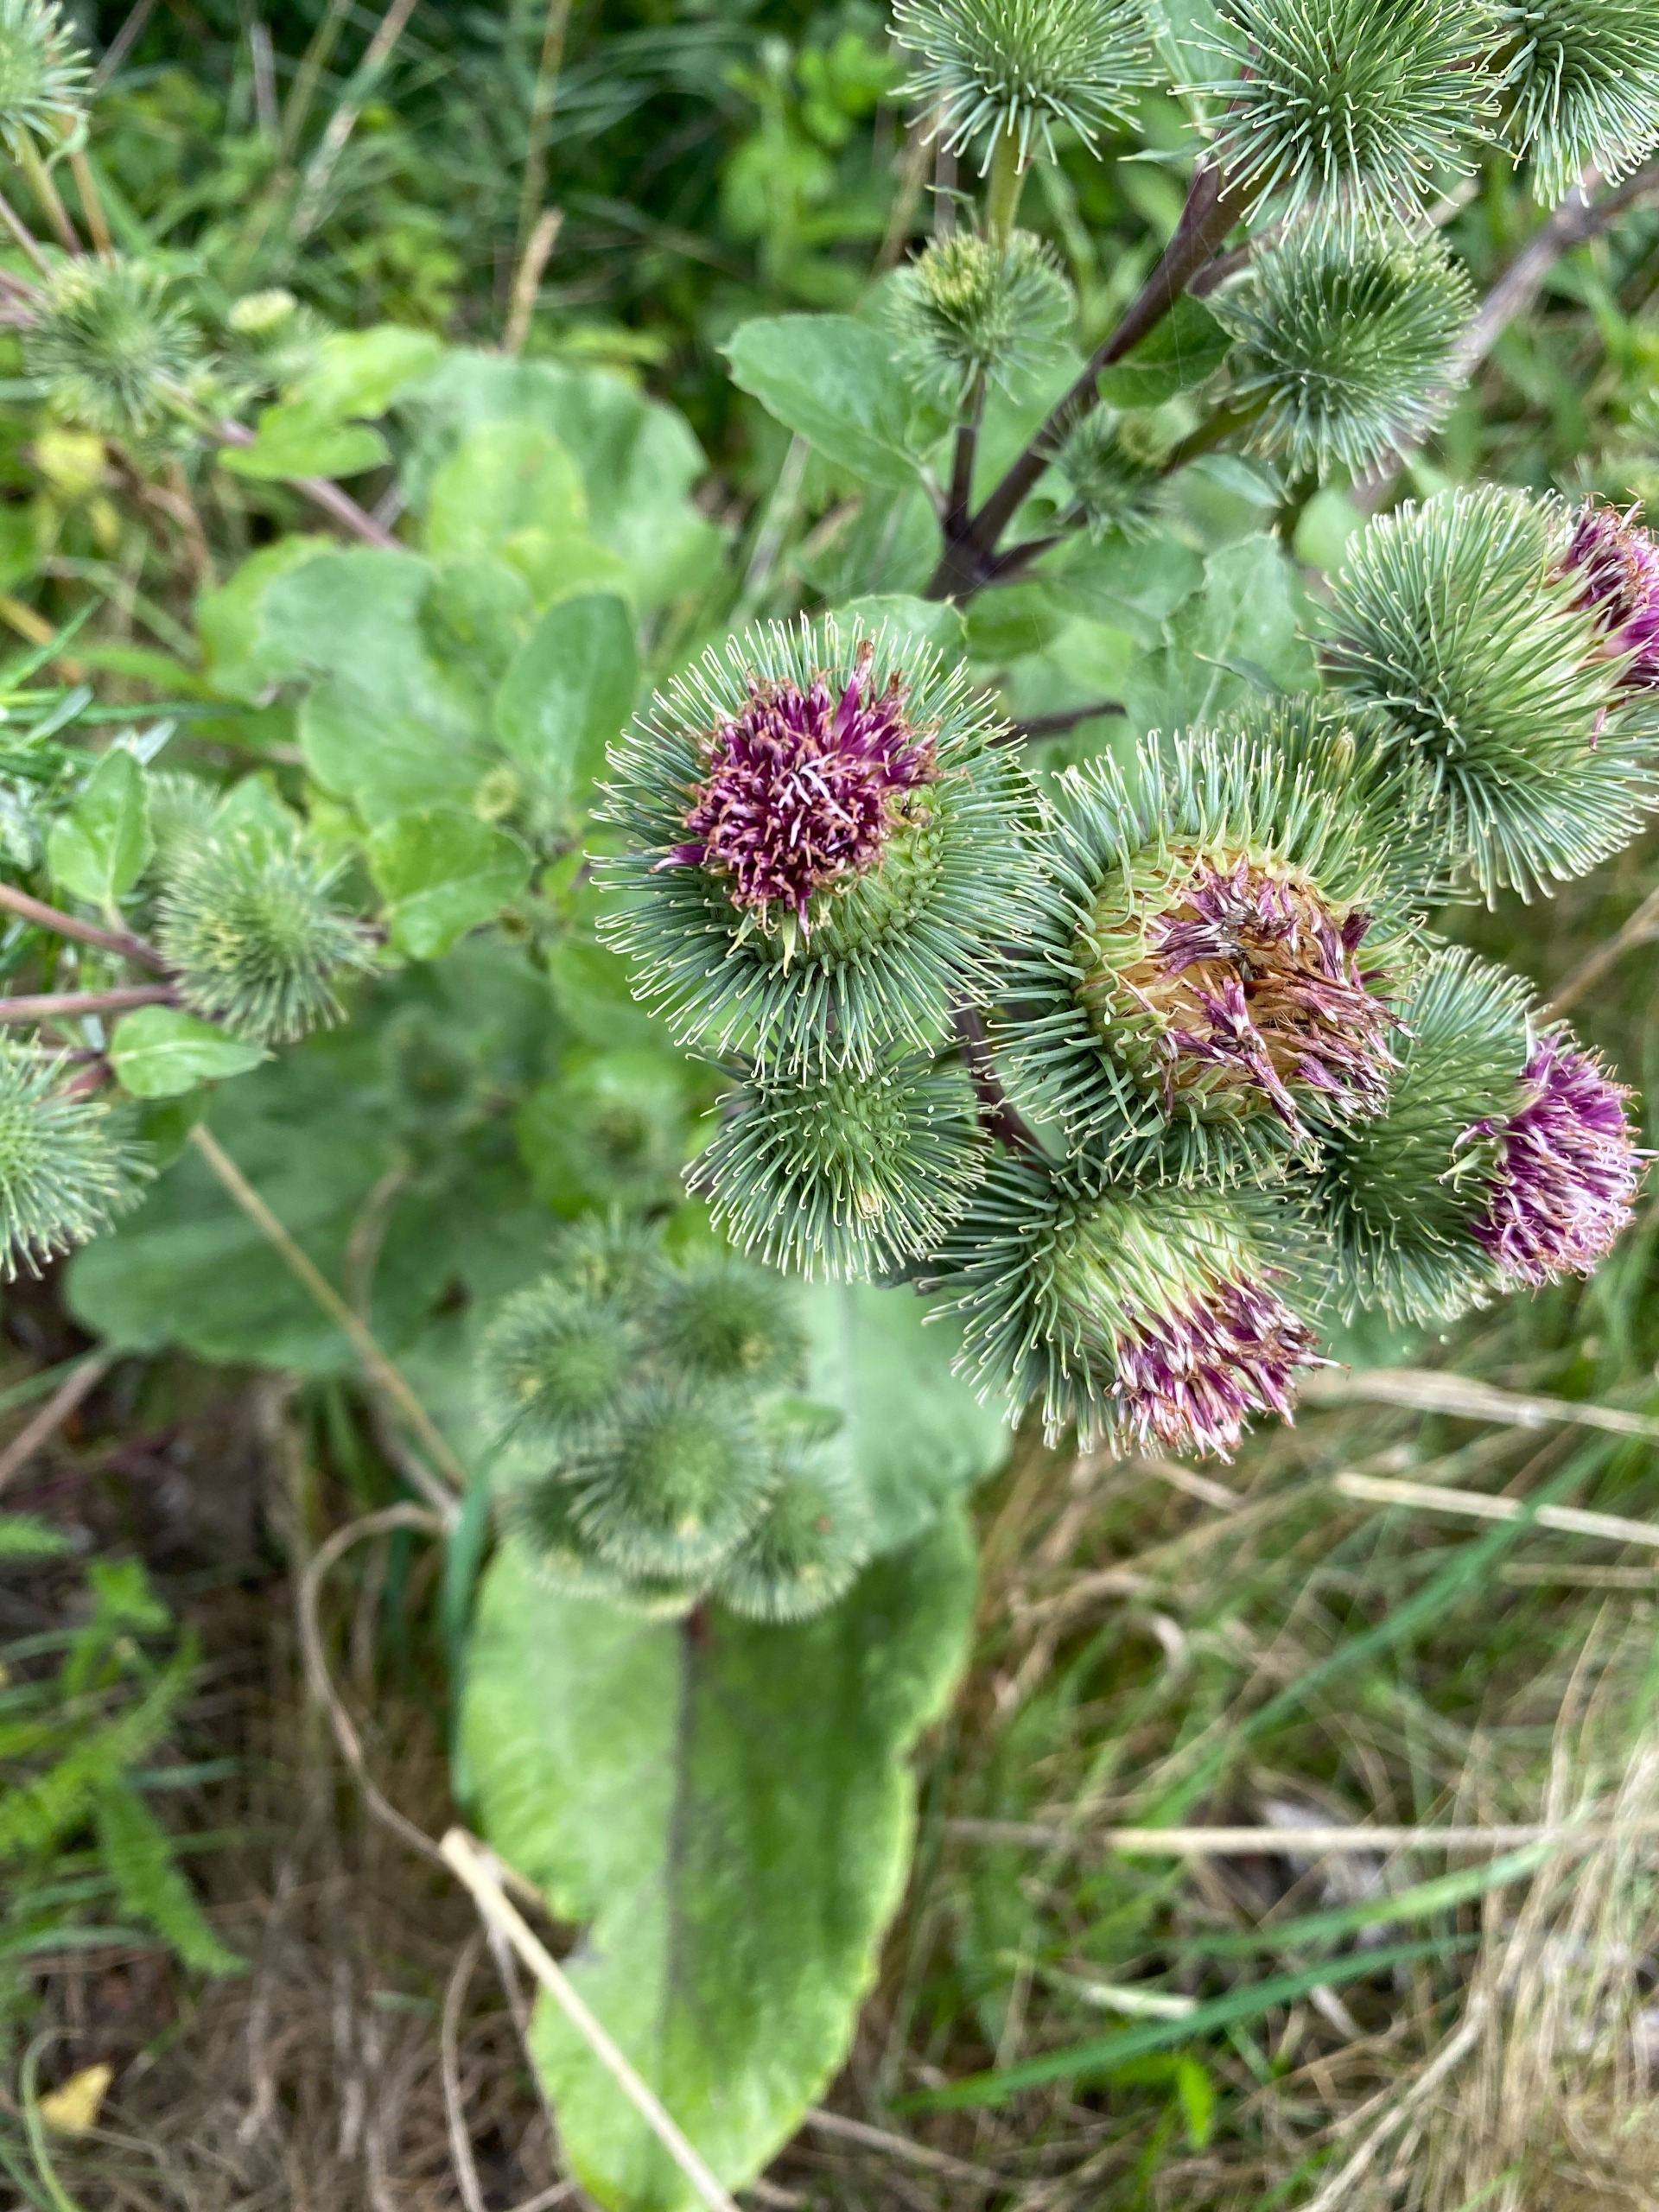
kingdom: Plantae
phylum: Tracheophyta
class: Magnoliopsida
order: Asterales
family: Asteraceae
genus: Arctium
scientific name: Arctium lappa
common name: Glat burre
